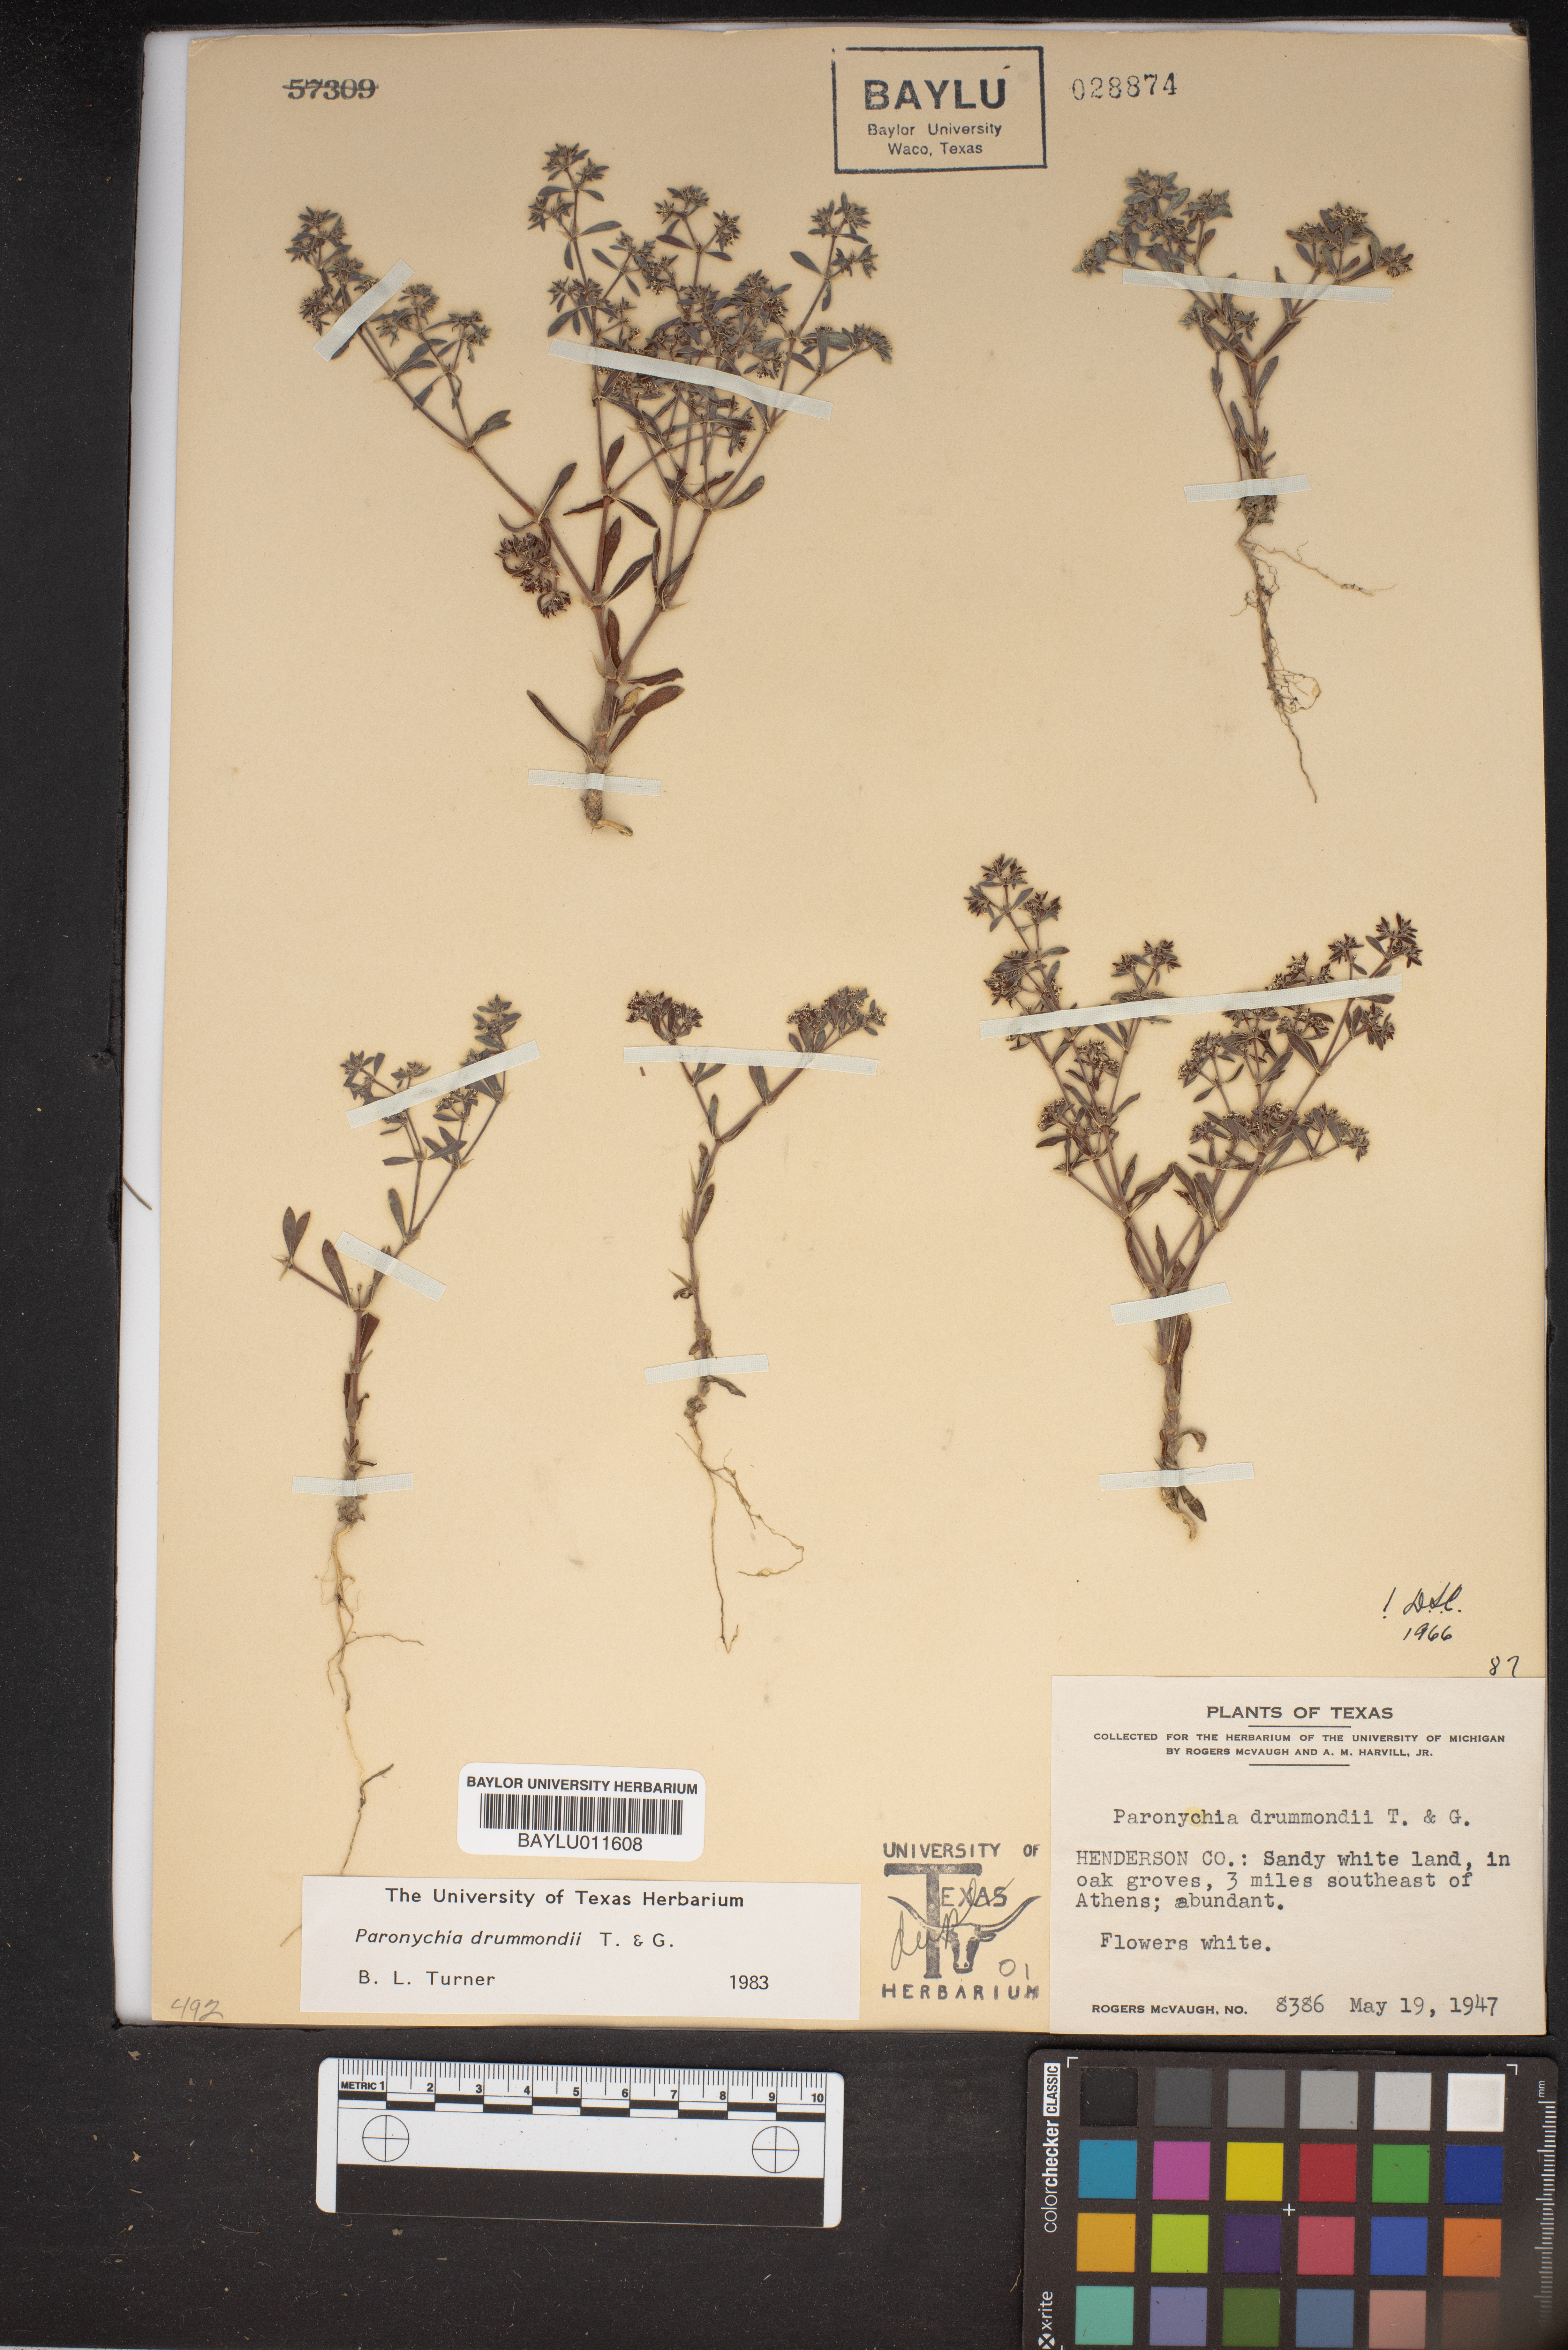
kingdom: Plantae
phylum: Tracheophyta
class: Magnoliopsida
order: Caryophyllales
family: Caryophyllaceae
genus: Paronychia
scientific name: Paronychia drummondii
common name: Drummond's nailwort
